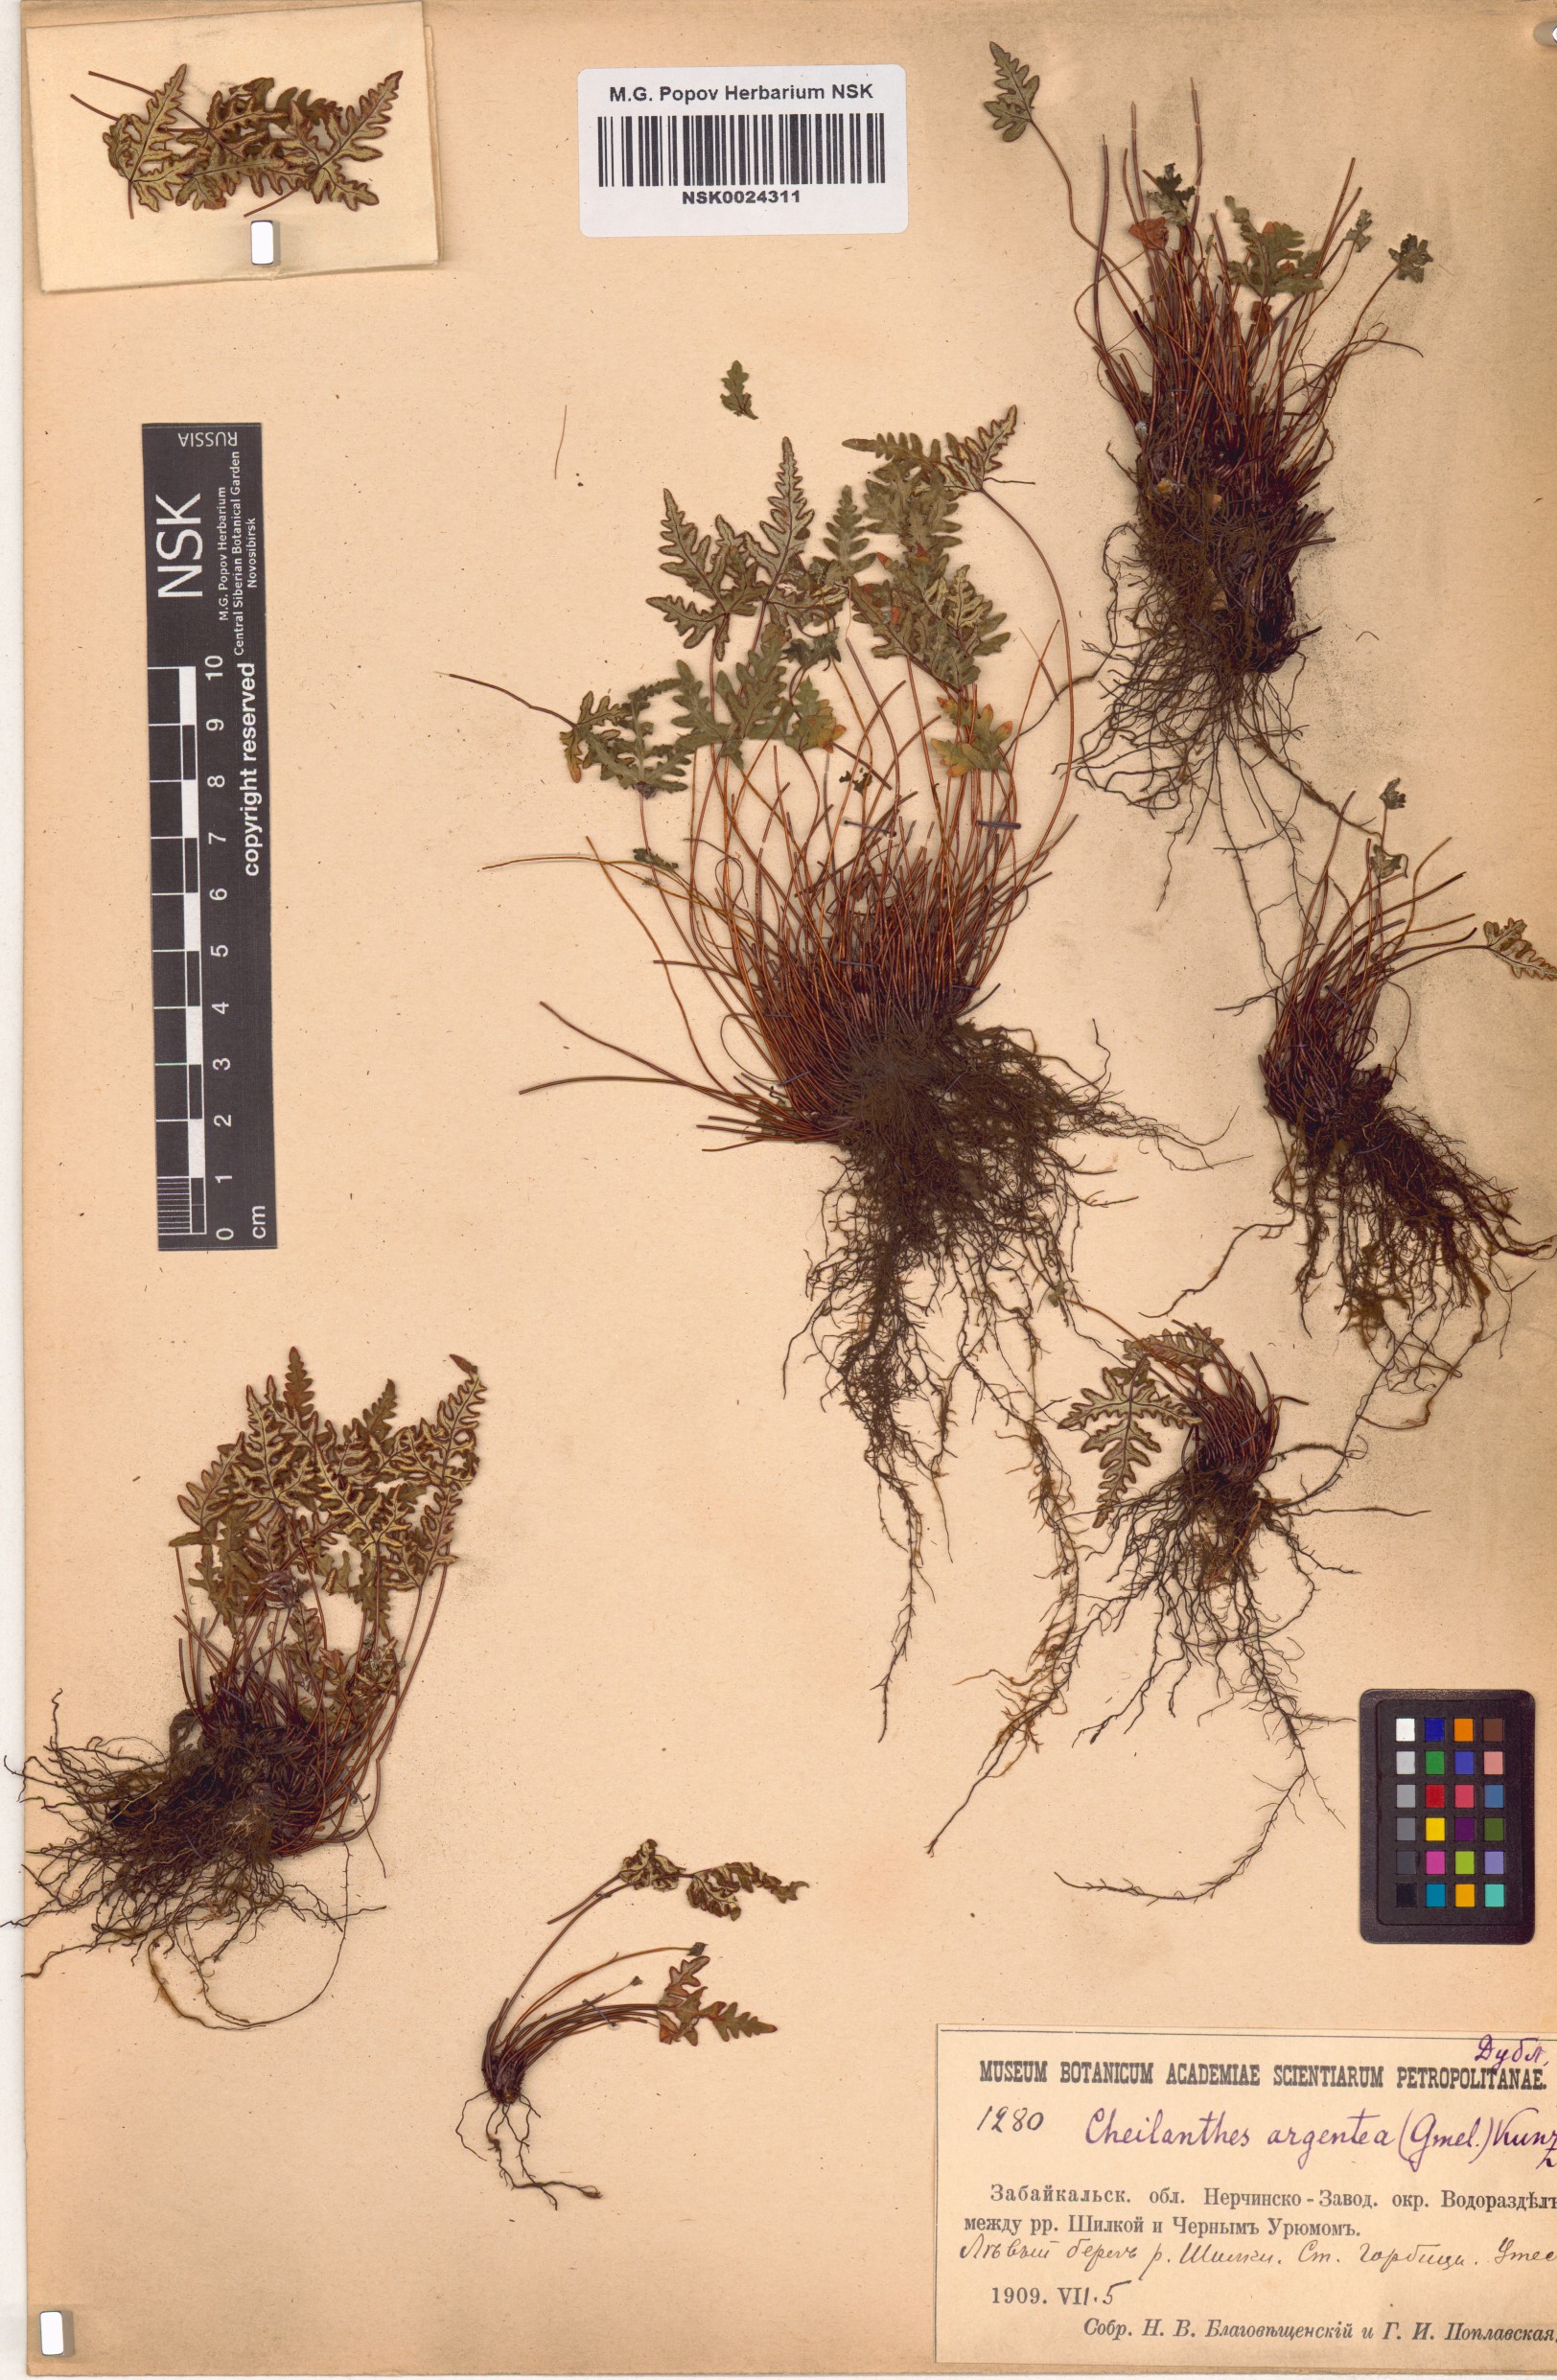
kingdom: Plantae
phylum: Tracheophyta
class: Polypodiopsida
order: Polypodiales
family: Pteridaceae
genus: Aleuritopteris
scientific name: Aleuritopteris argentea
